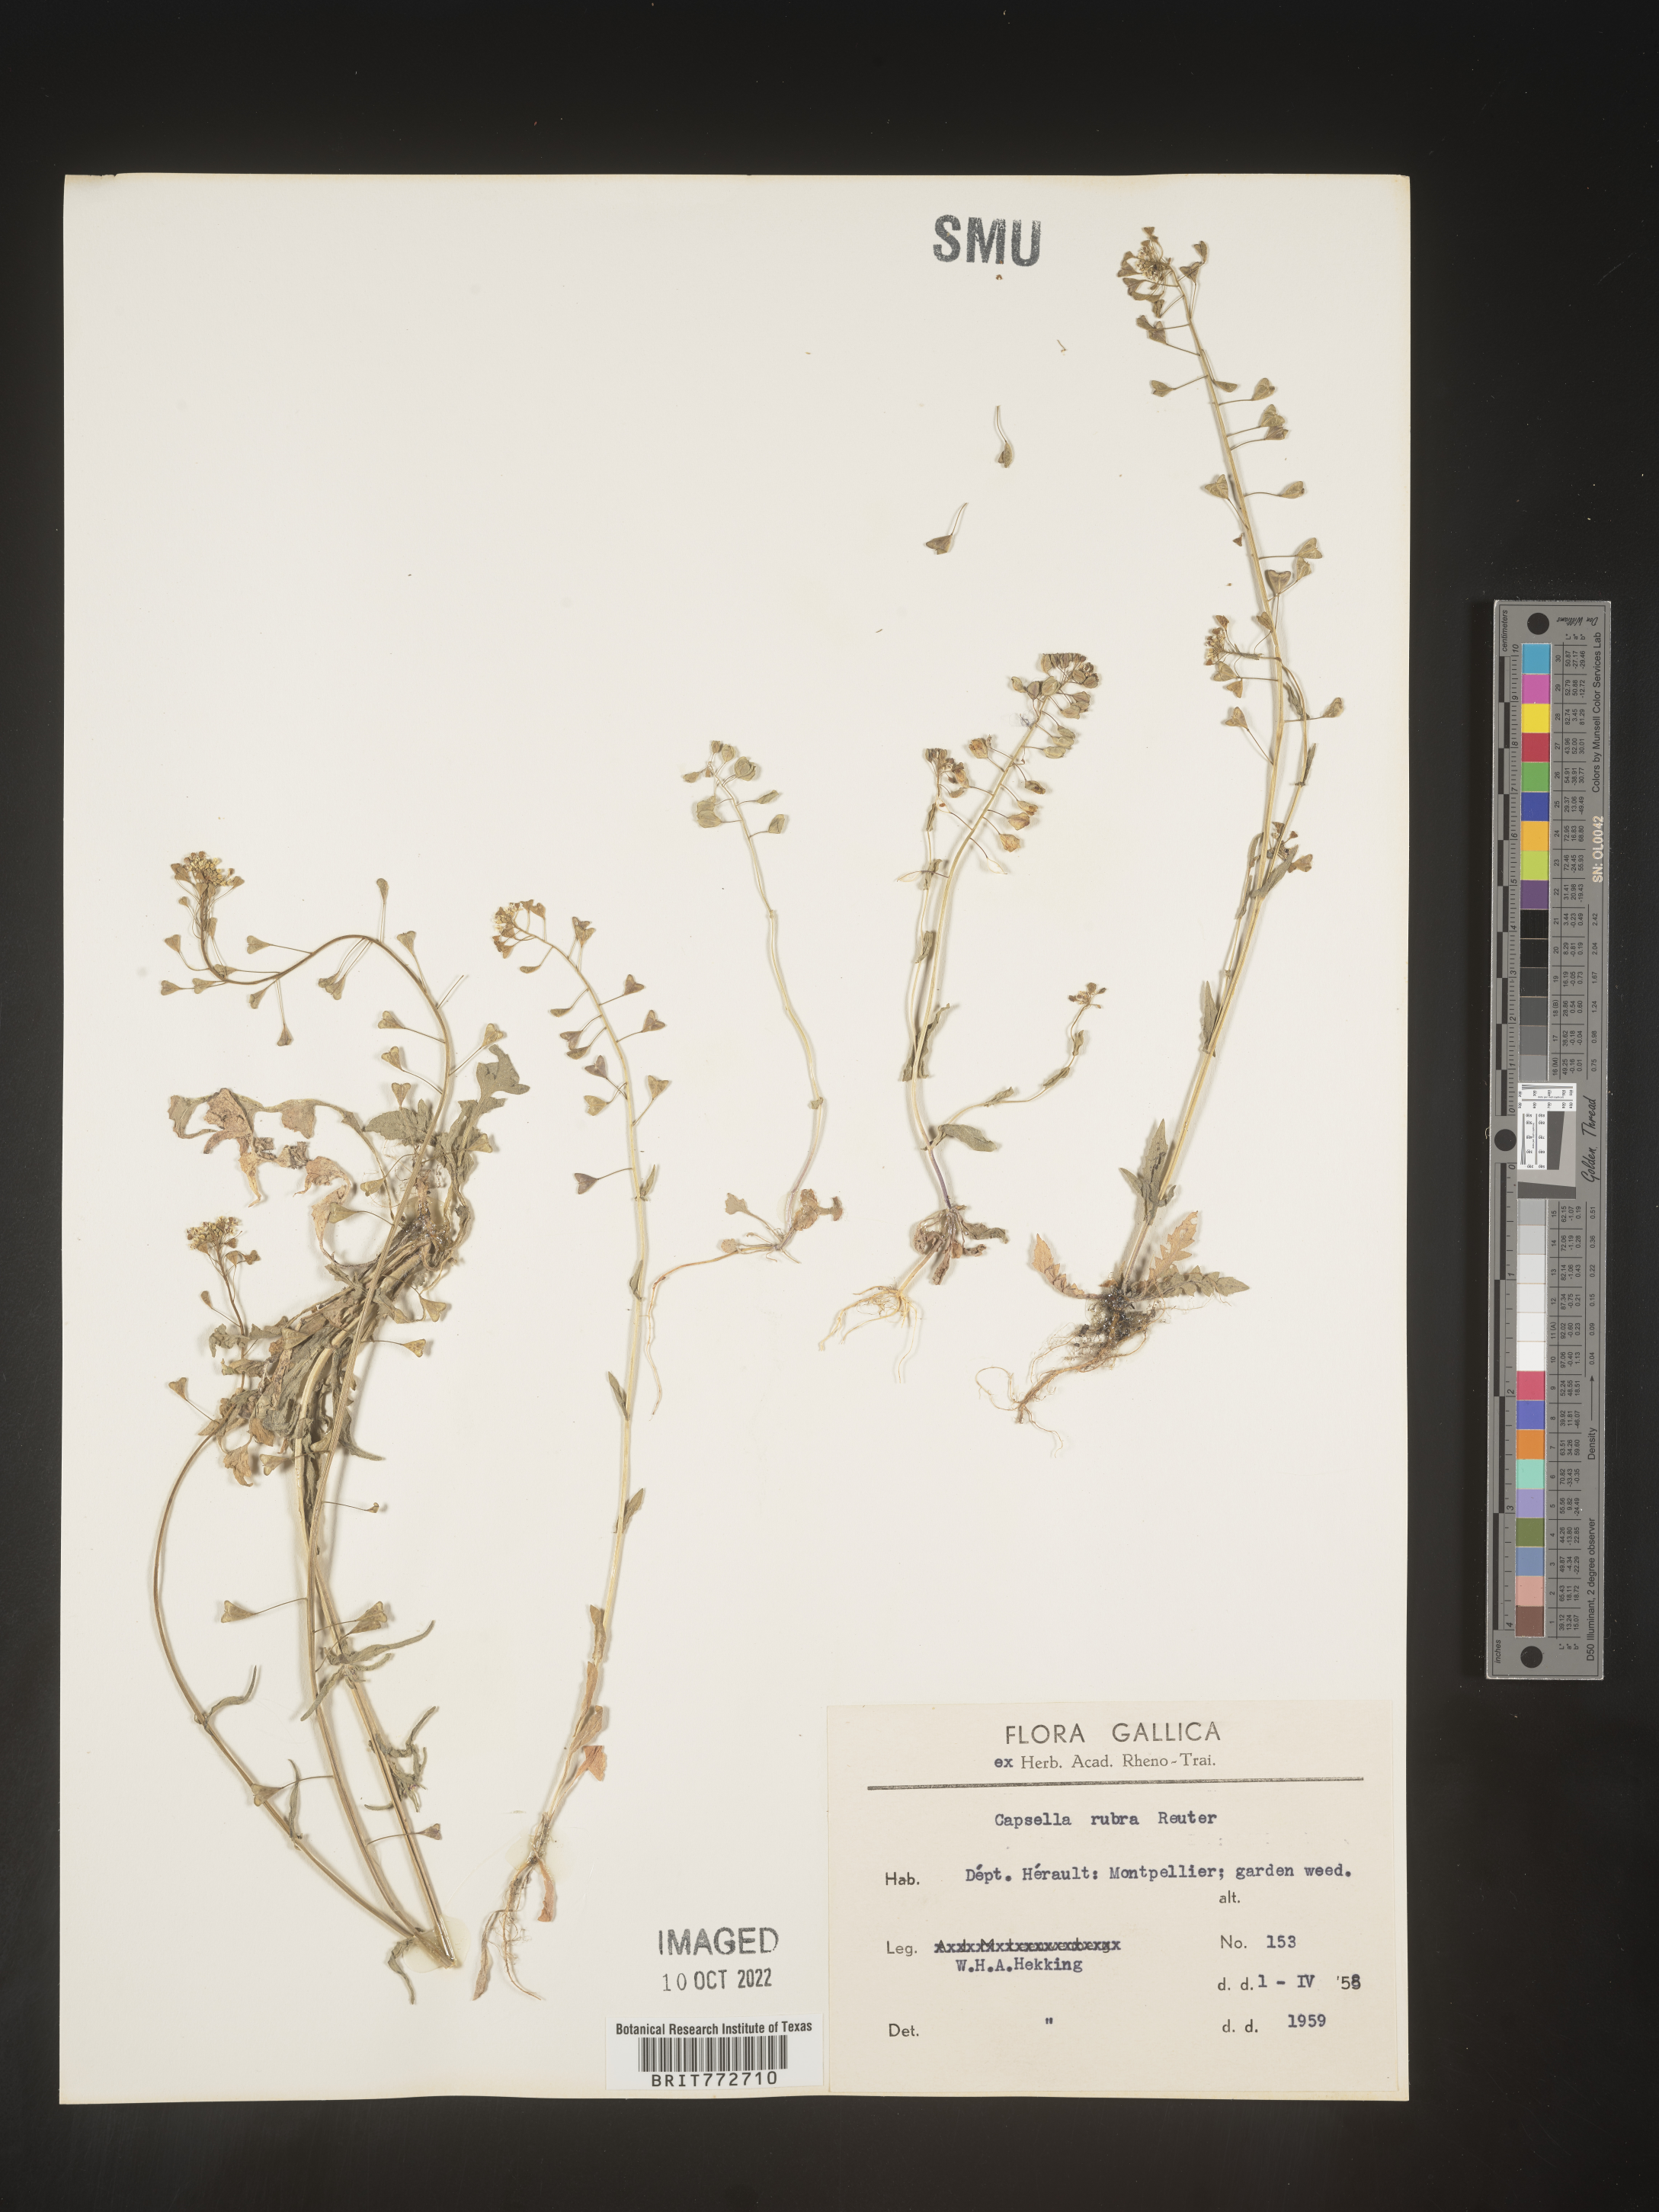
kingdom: Plantae
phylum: Tracheophyta
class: Magnoliopsida
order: Brassicales
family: Brassicaceae
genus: Capsella
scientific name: Capsella
